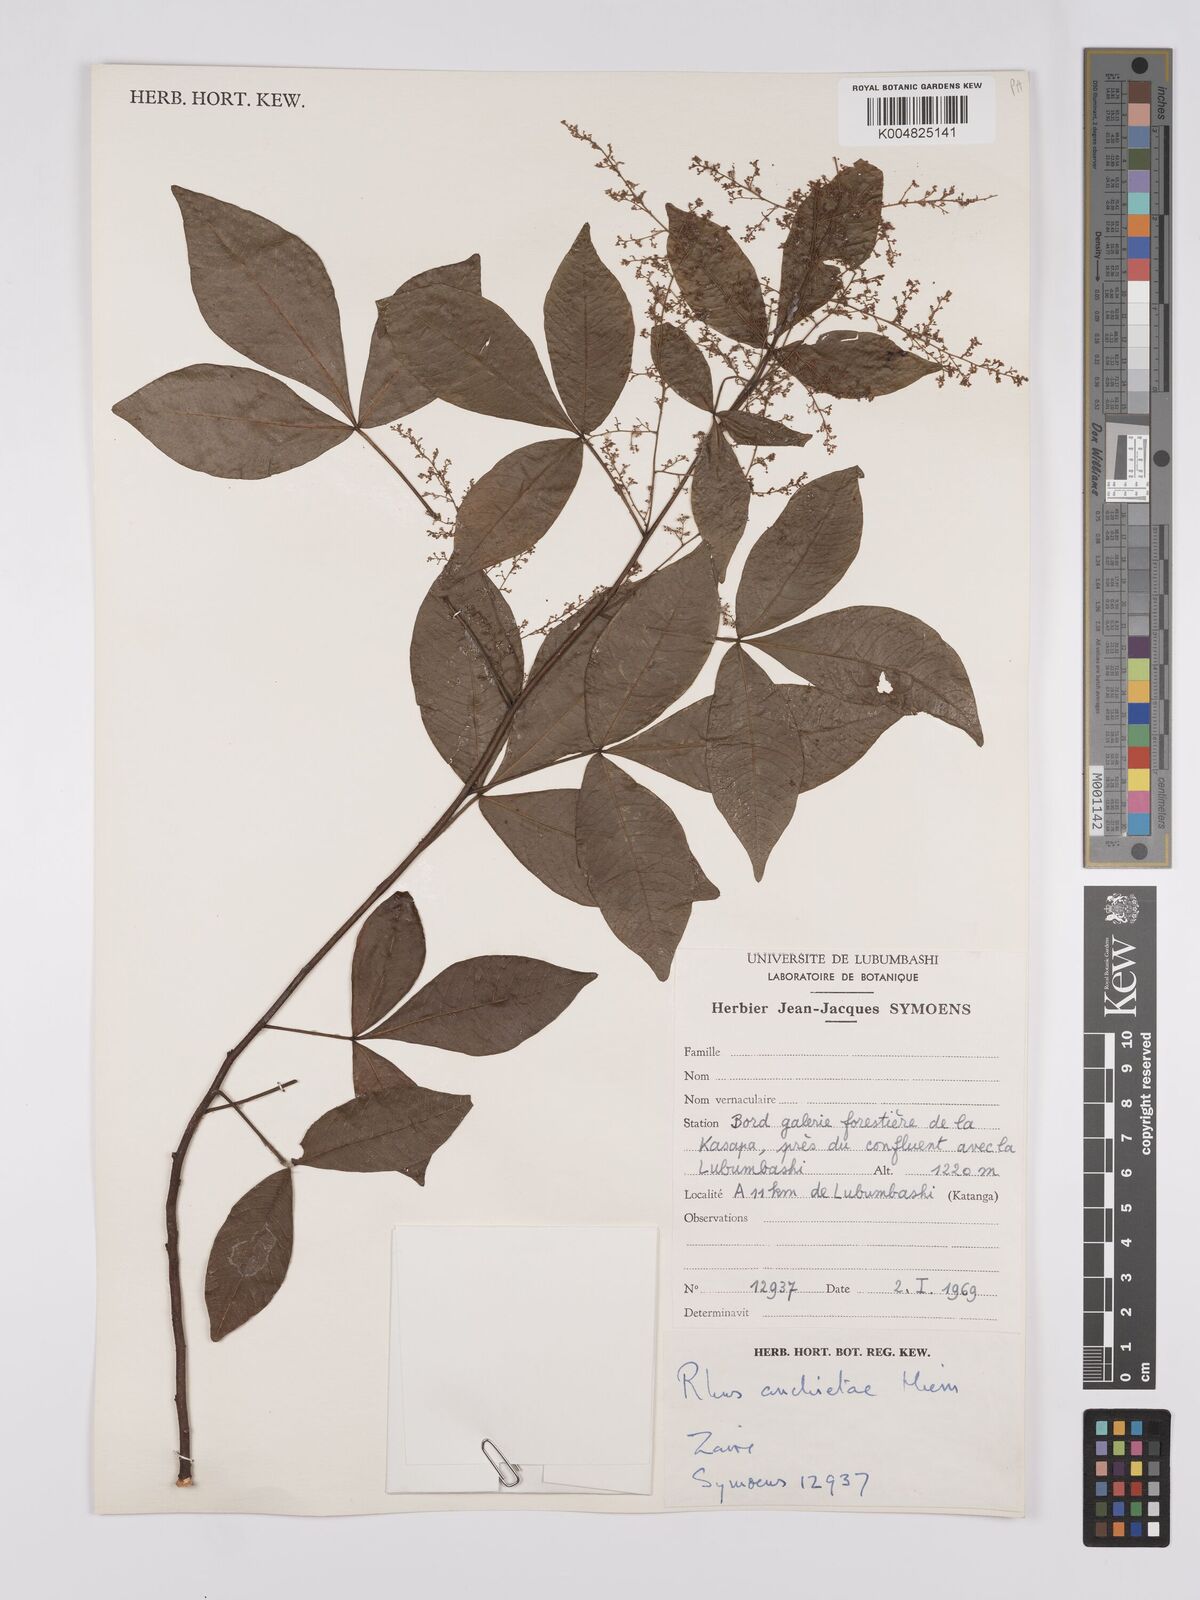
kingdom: Plantae
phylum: Tracheophyta
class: Magnoliopsida
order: Sapindales
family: Anacardiaceae
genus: Searsia
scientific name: Searsia anchietae
